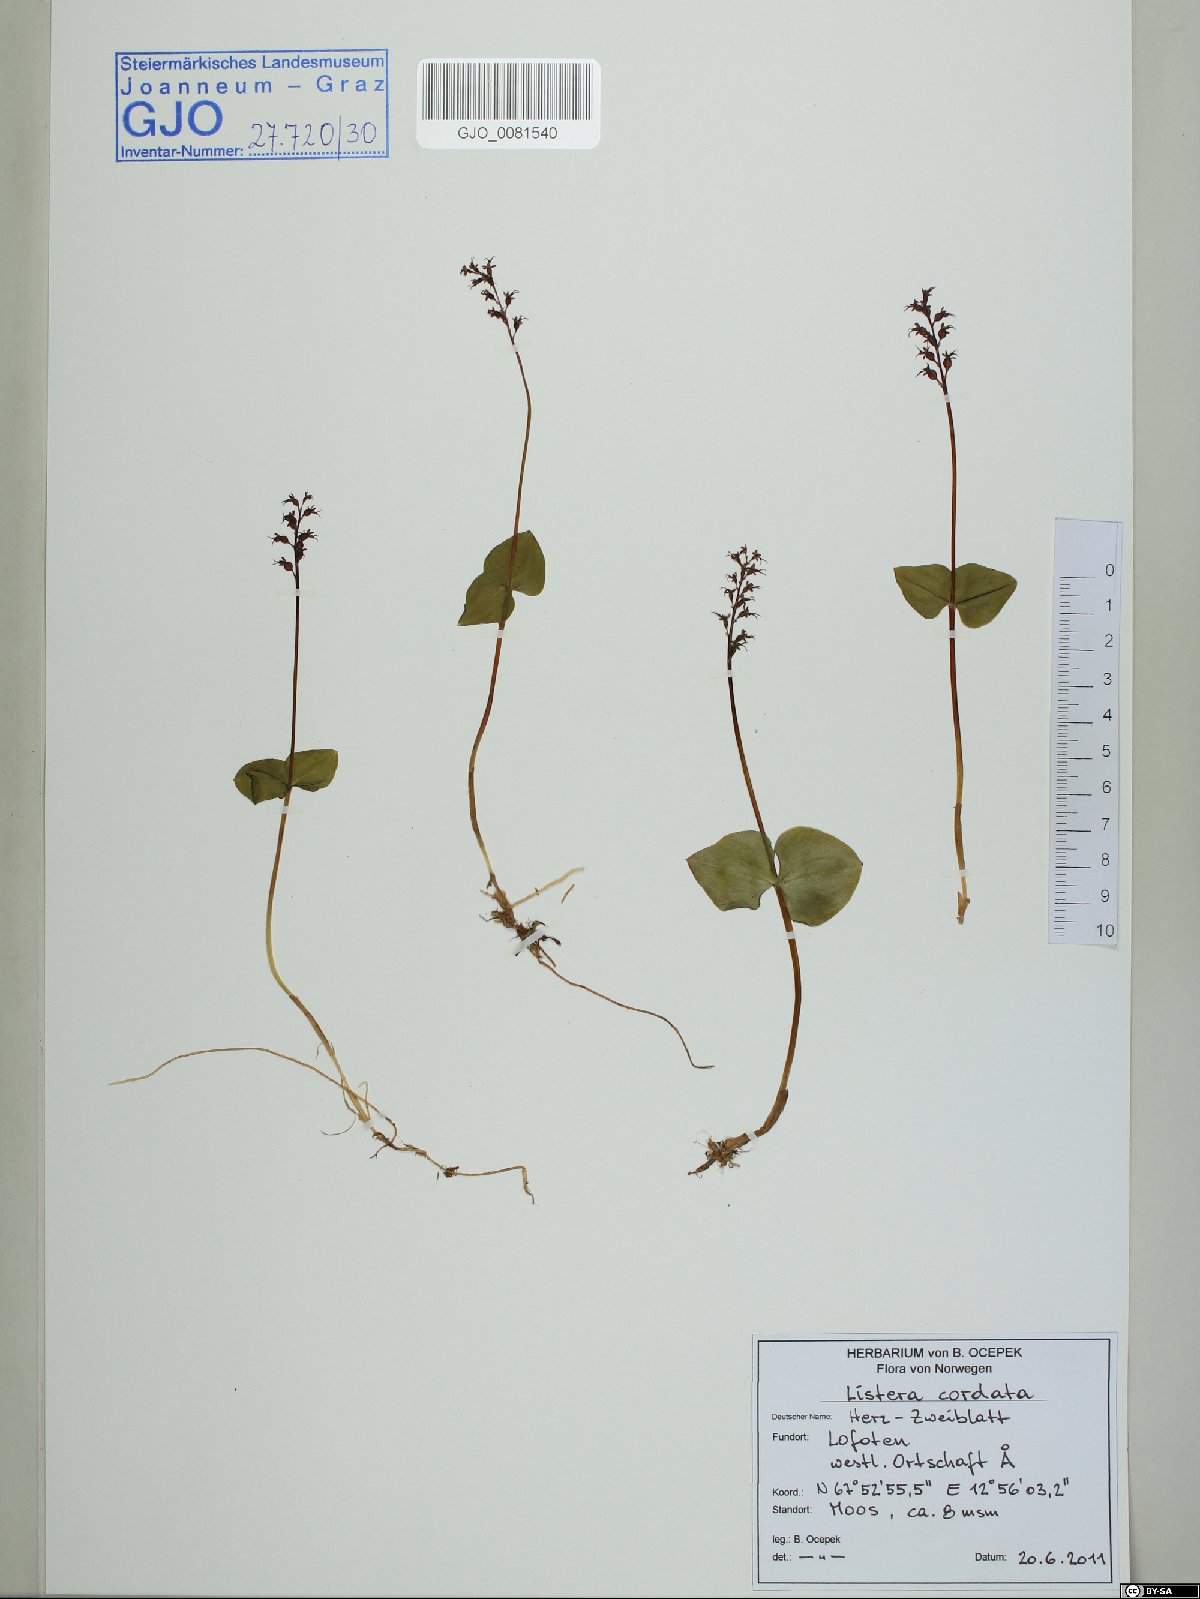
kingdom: Plantae
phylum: Tracheophyta
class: Liliopsida
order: Asparagales
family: Orchidaceae
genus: Neottia
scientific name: Neottia cordata
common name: Lesser twayblade
